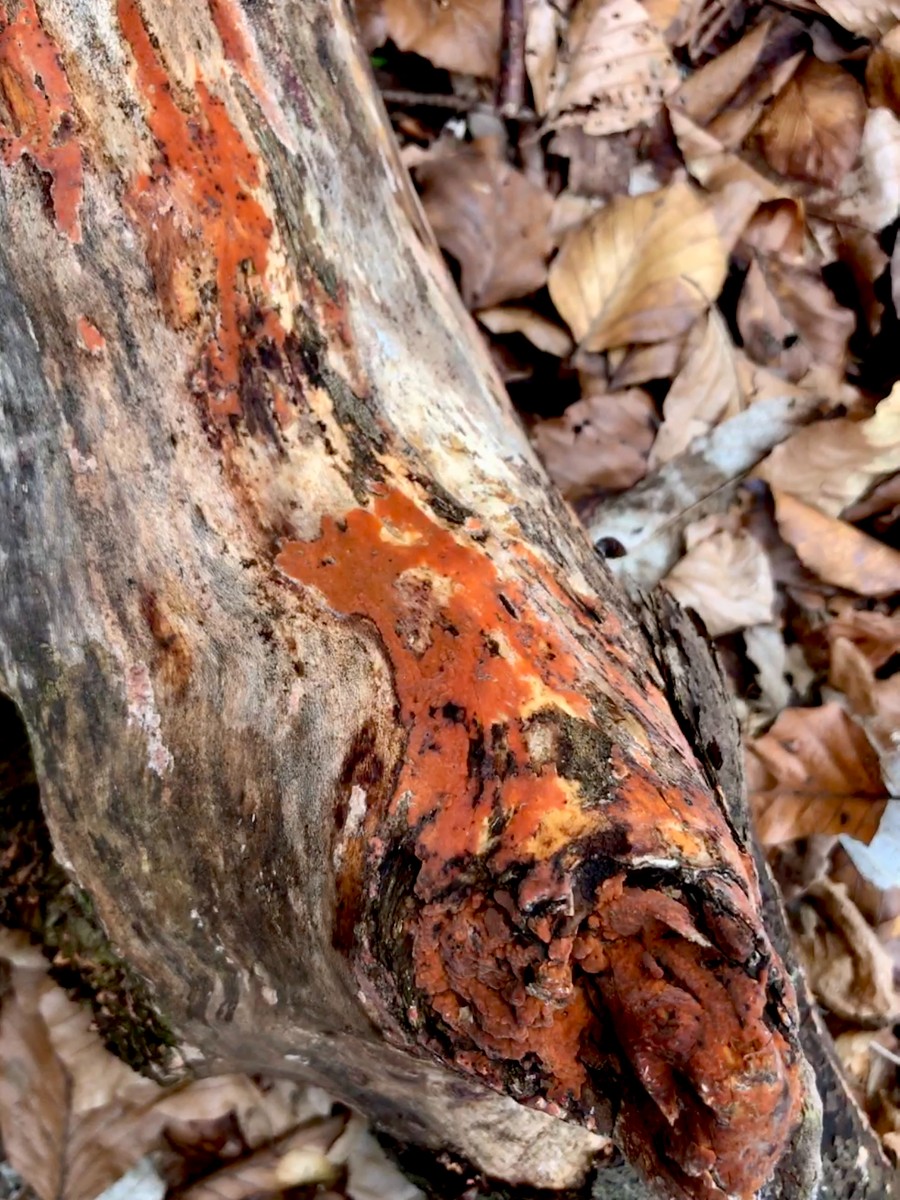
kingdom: Fungi
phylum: Basidiomycota
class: Agaricomycetes
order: Russulales
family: Peniophoraceae
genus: Peniophora
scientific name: Peniophora incarnata
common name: laksefarvet voksskind
